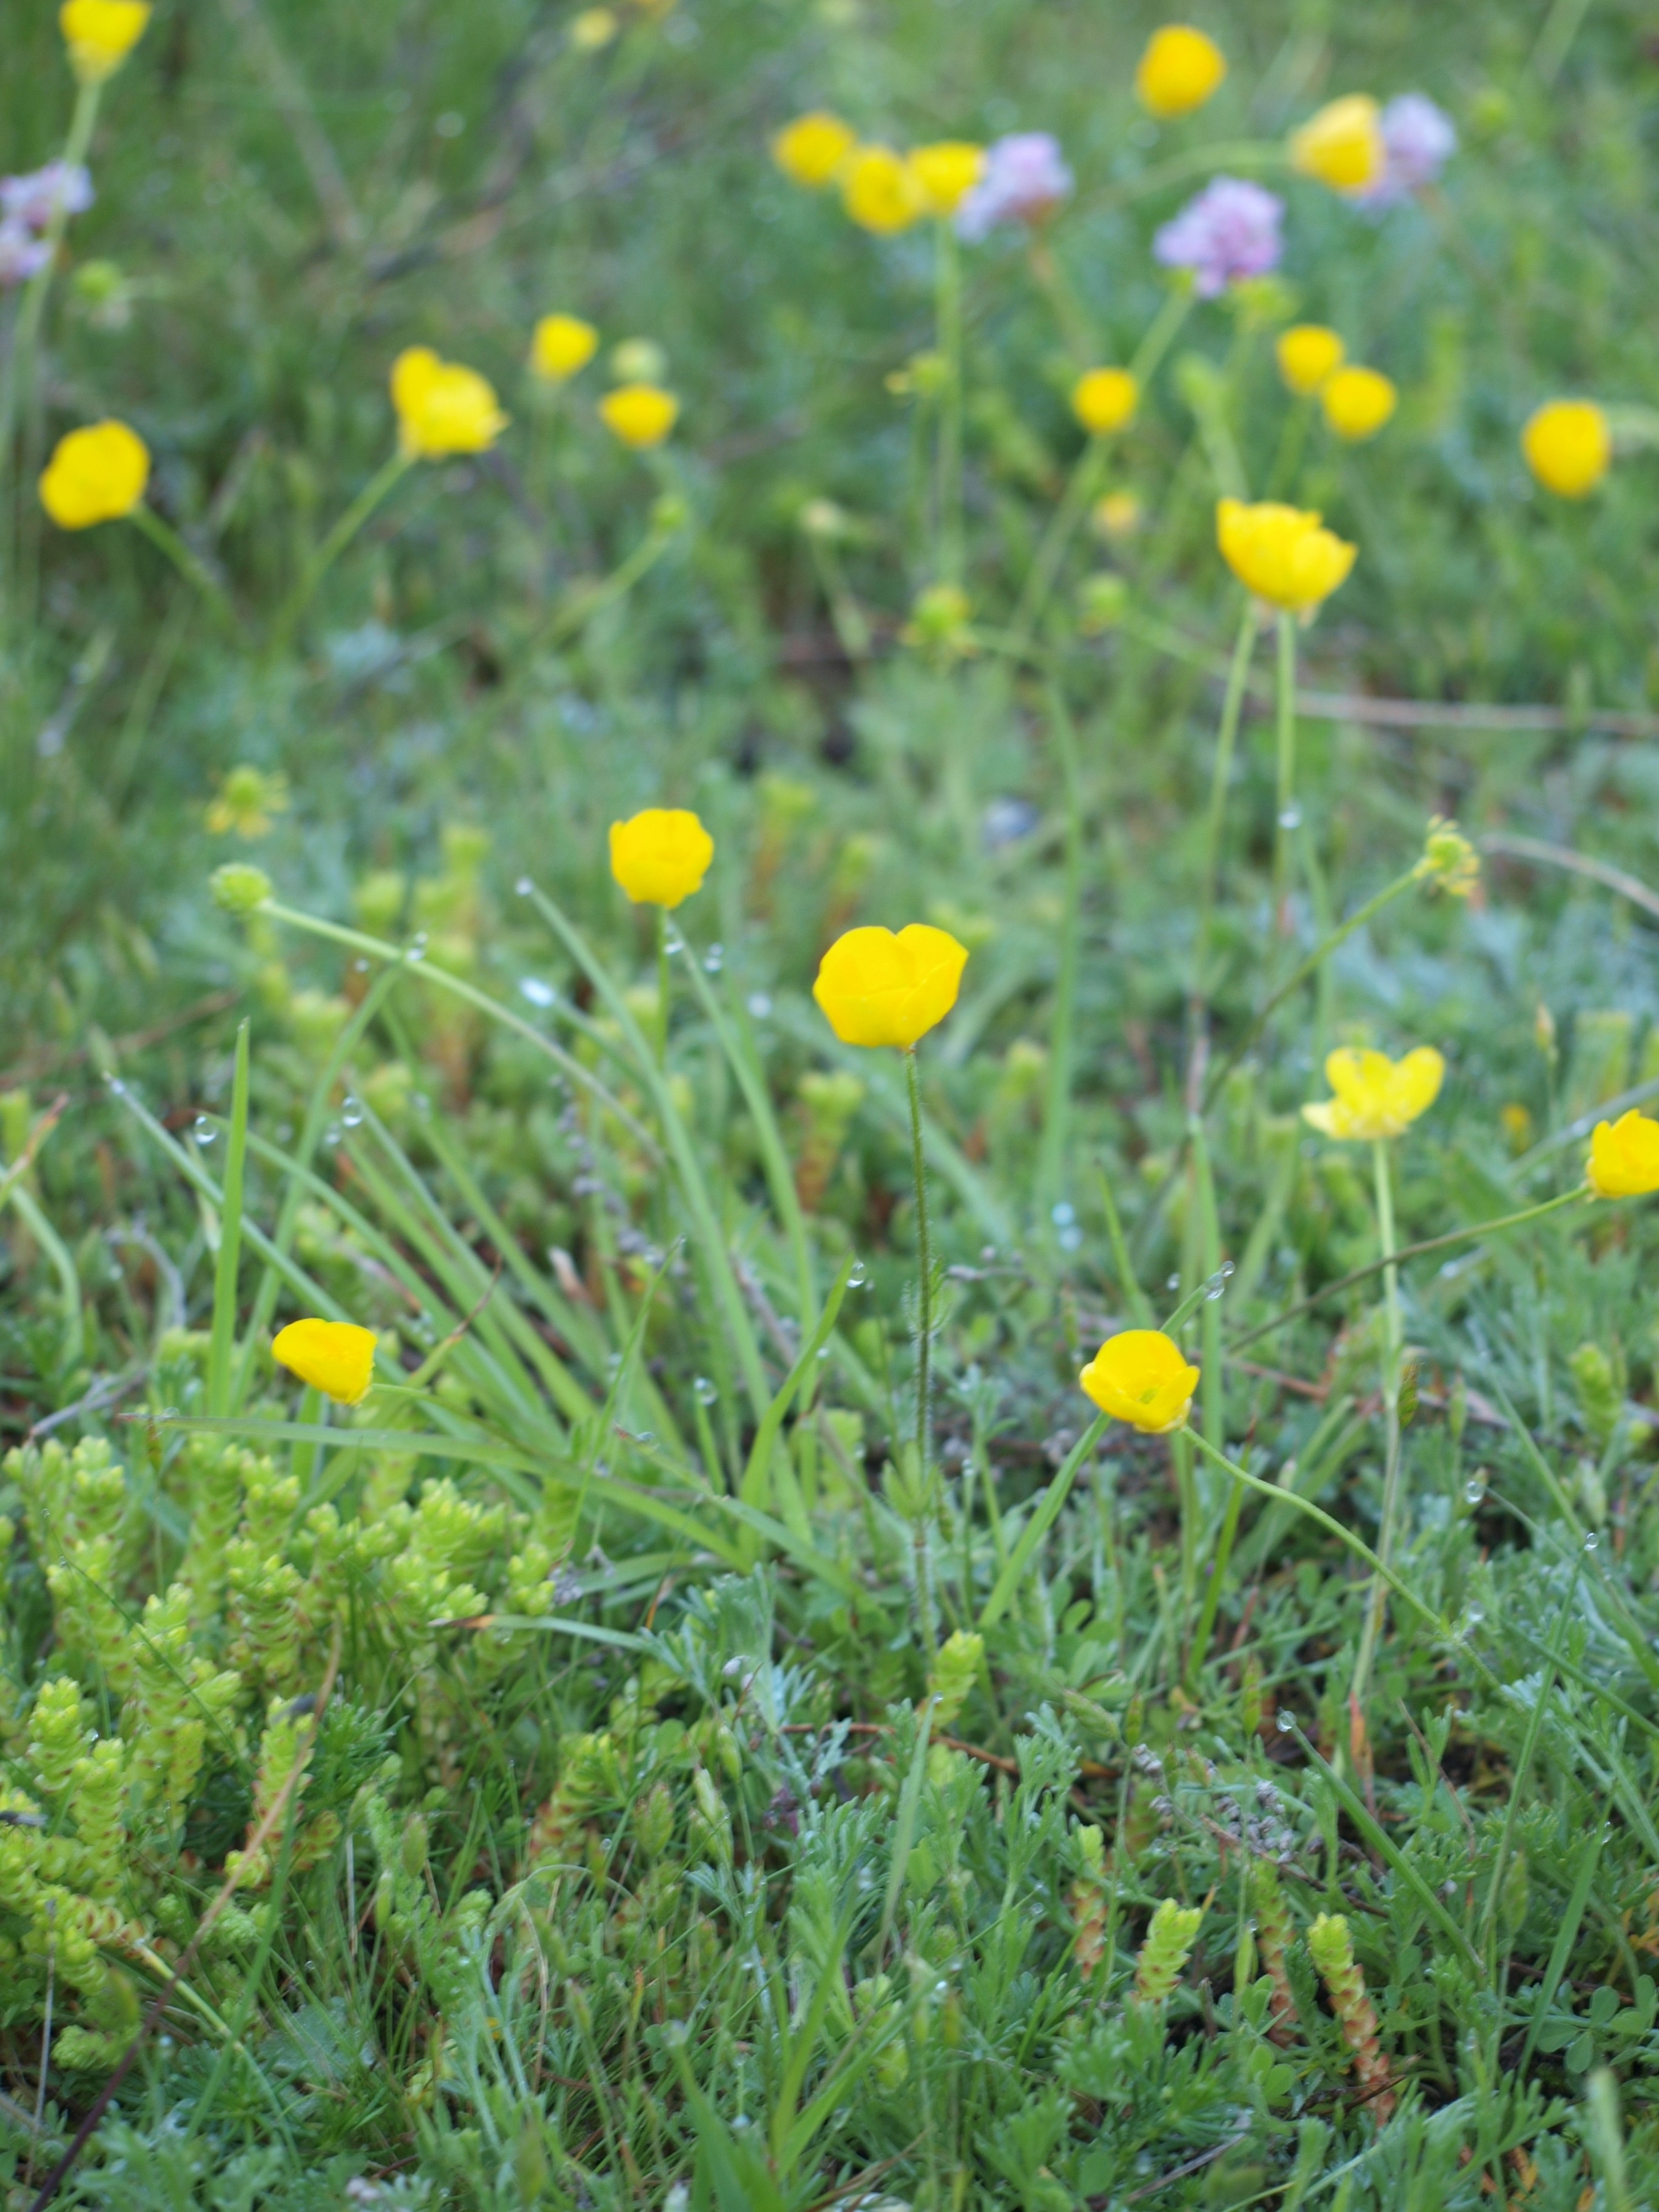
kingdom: Plantae
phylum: Tracheophyta
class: Magnoliopsida
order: Ranunculales
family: Ranunculaceae
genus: Ranunculus
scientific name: Ranunculus bulbosus
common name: Knold-ranunkel
